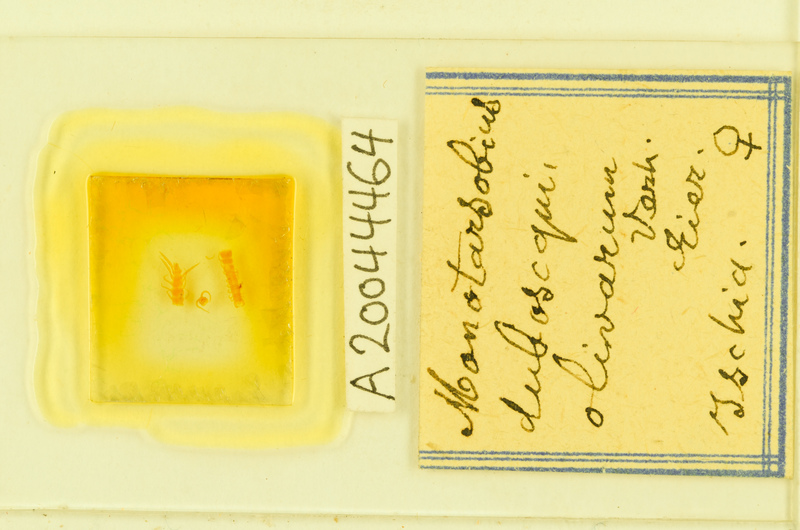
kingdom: Animalia
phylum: Arthropoda
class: Chilopoda
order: Lithobiomorpha
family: Lithobiidae
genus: Monotarsobius
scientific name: Monotarsobius
